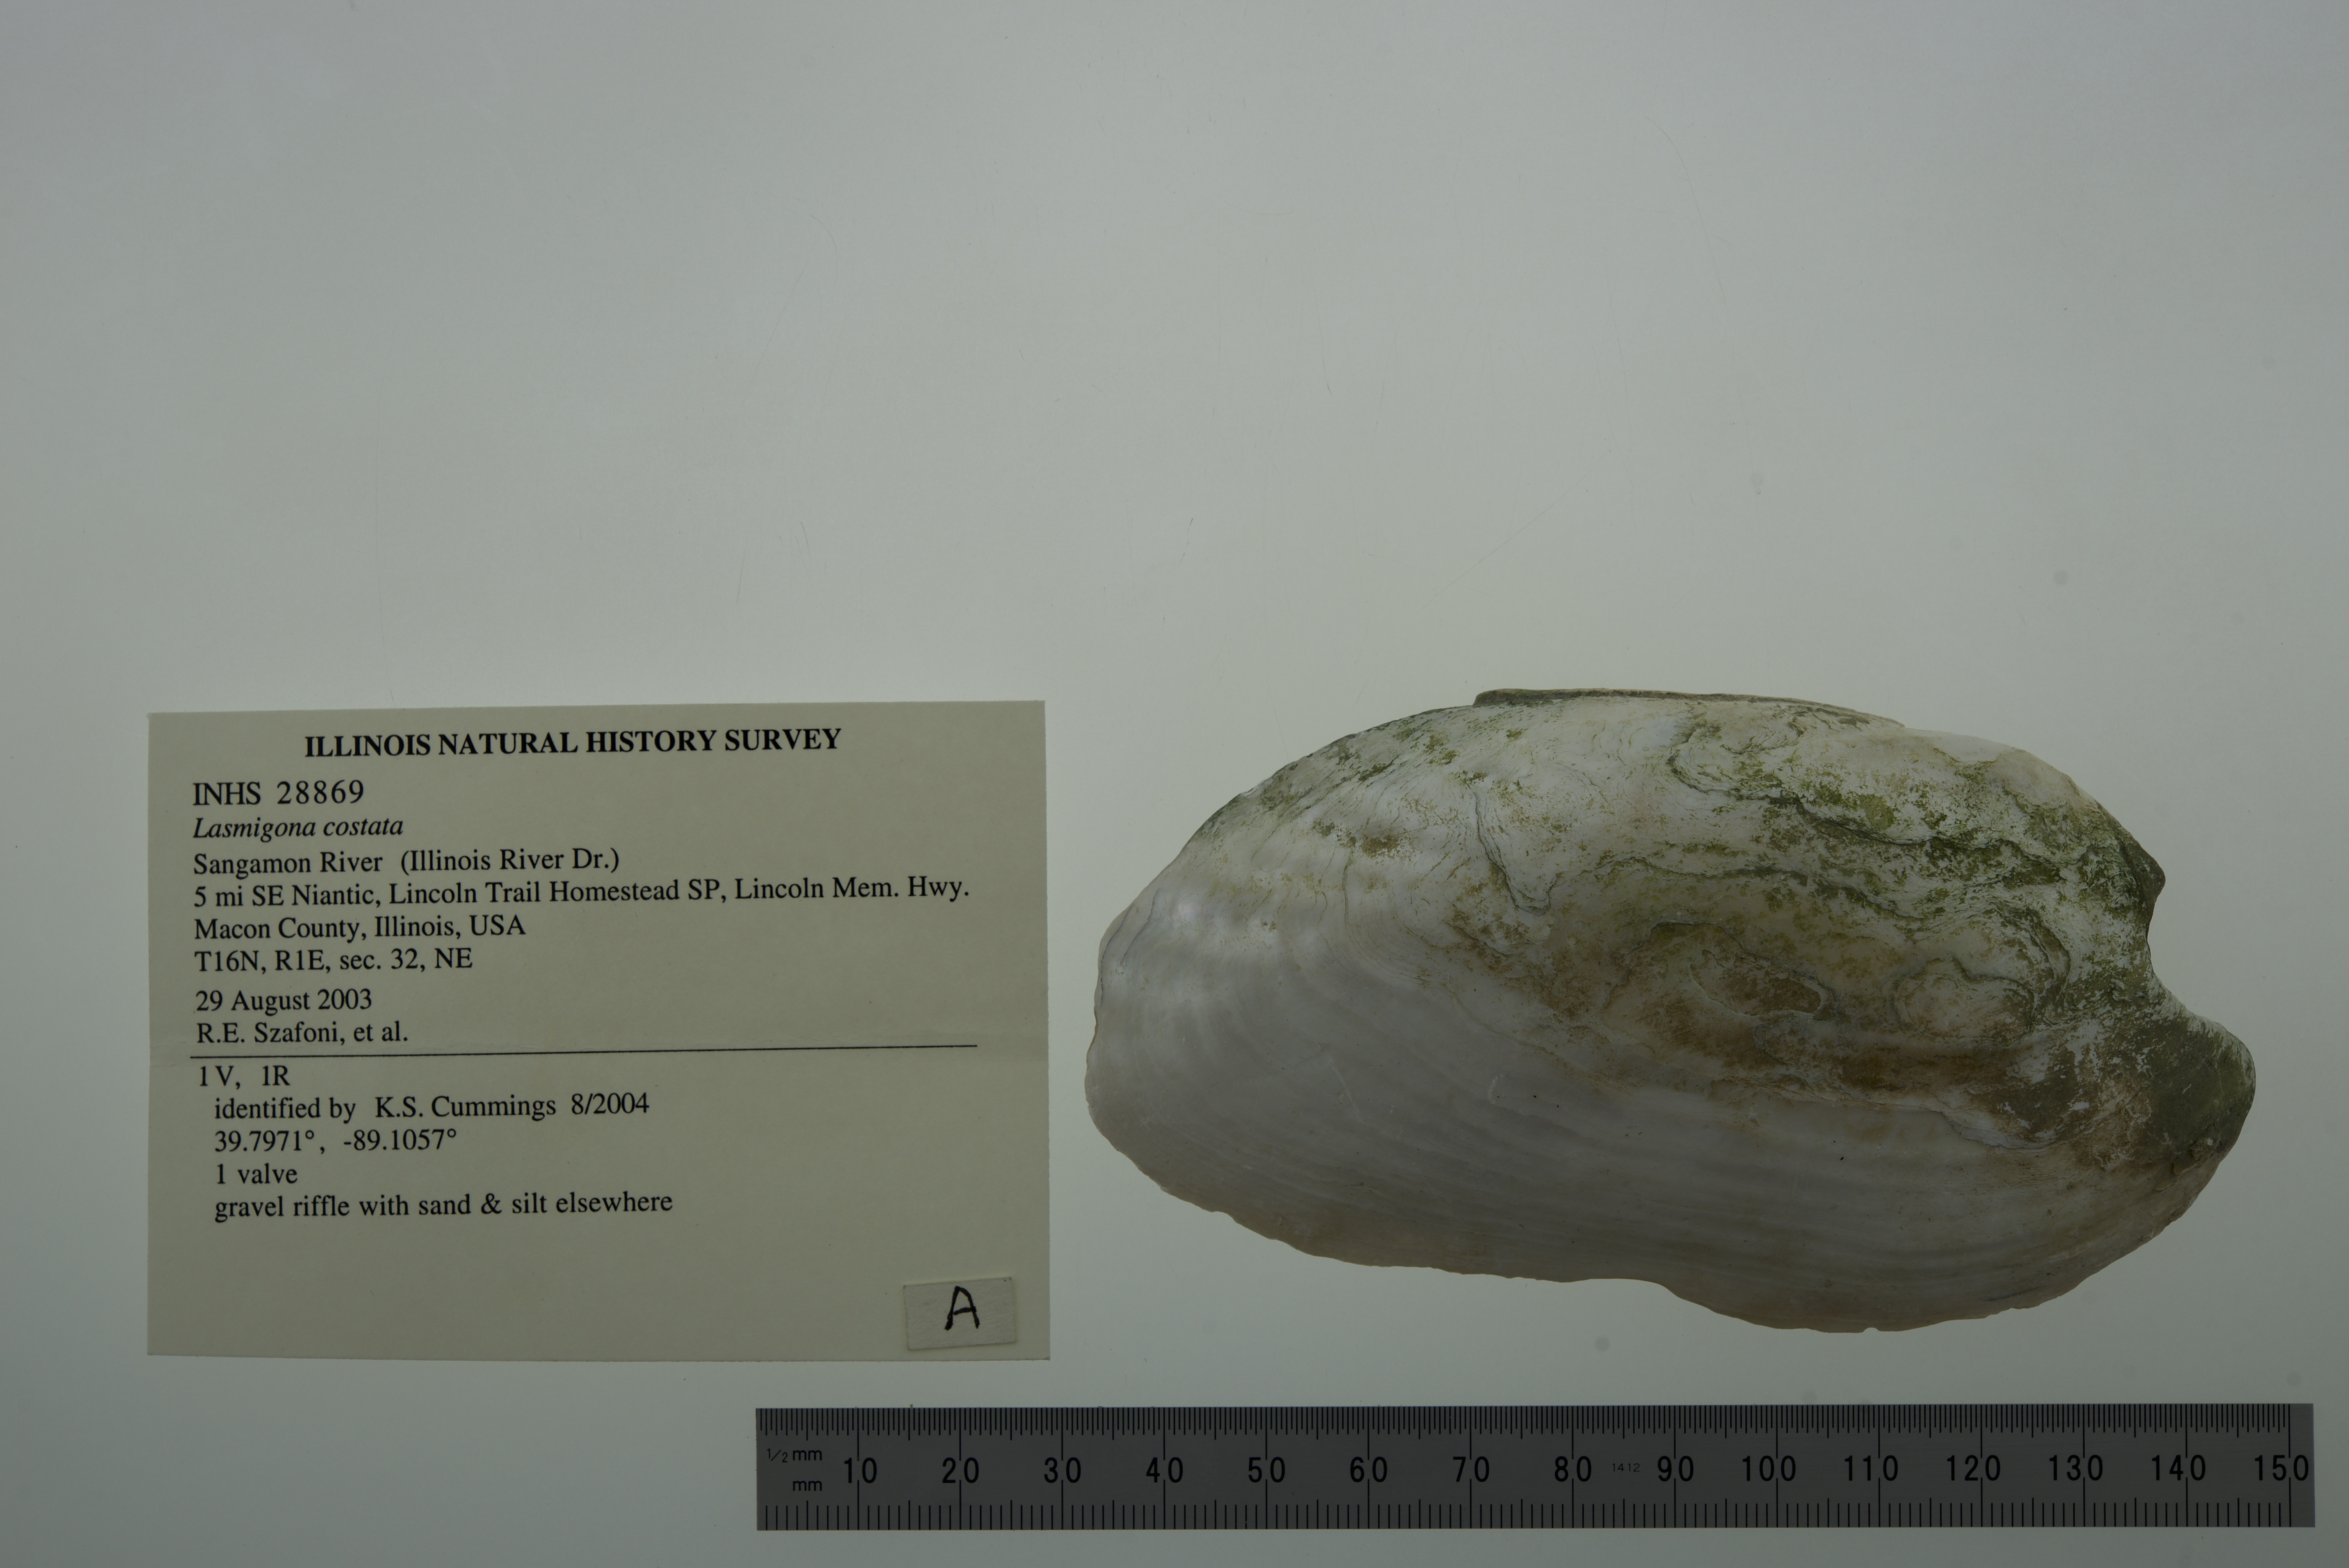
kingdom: Animalia
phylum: Mollusca
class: Bivalvia
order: Unionida
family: Unionidae
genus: Lasmigona
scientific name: Lasmigona costata
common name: Flutedshell
